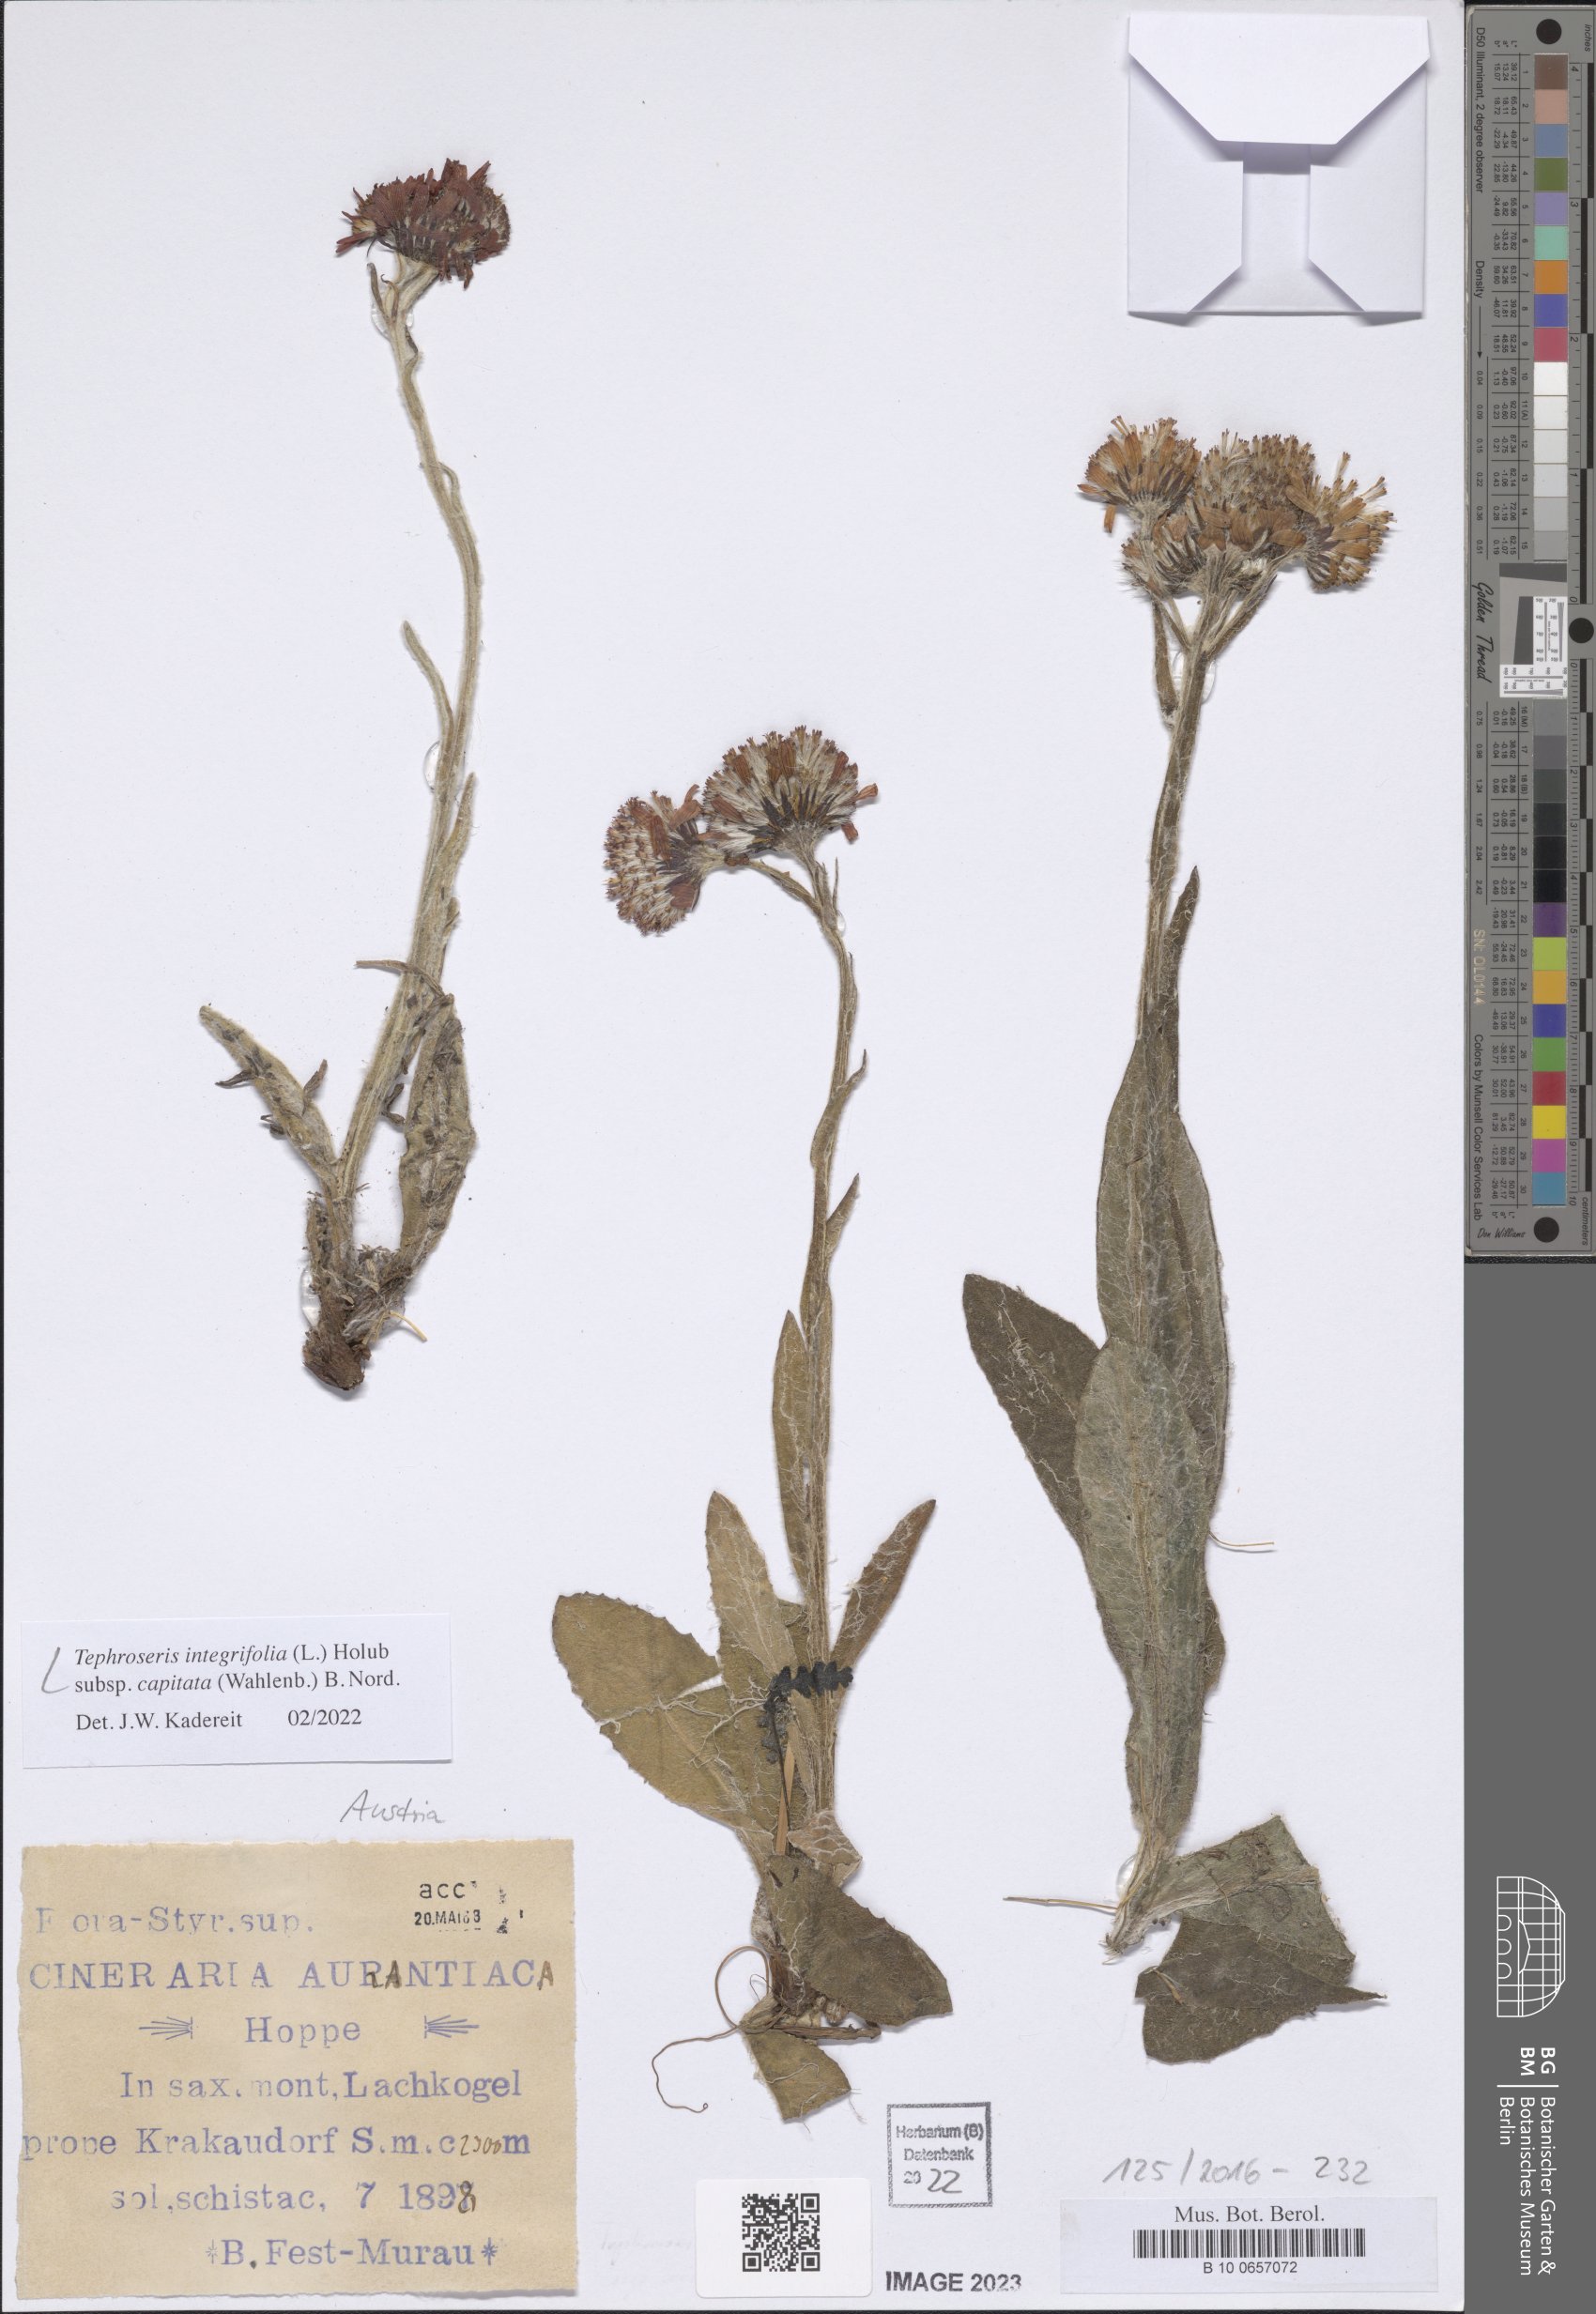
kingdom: Plantae
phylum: Tracheophyta
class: Magnoliopsida
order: Asterales
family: Asteraceae
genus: Tephroseris
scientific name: Tephroseris integrifolia
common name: Field fleawort
